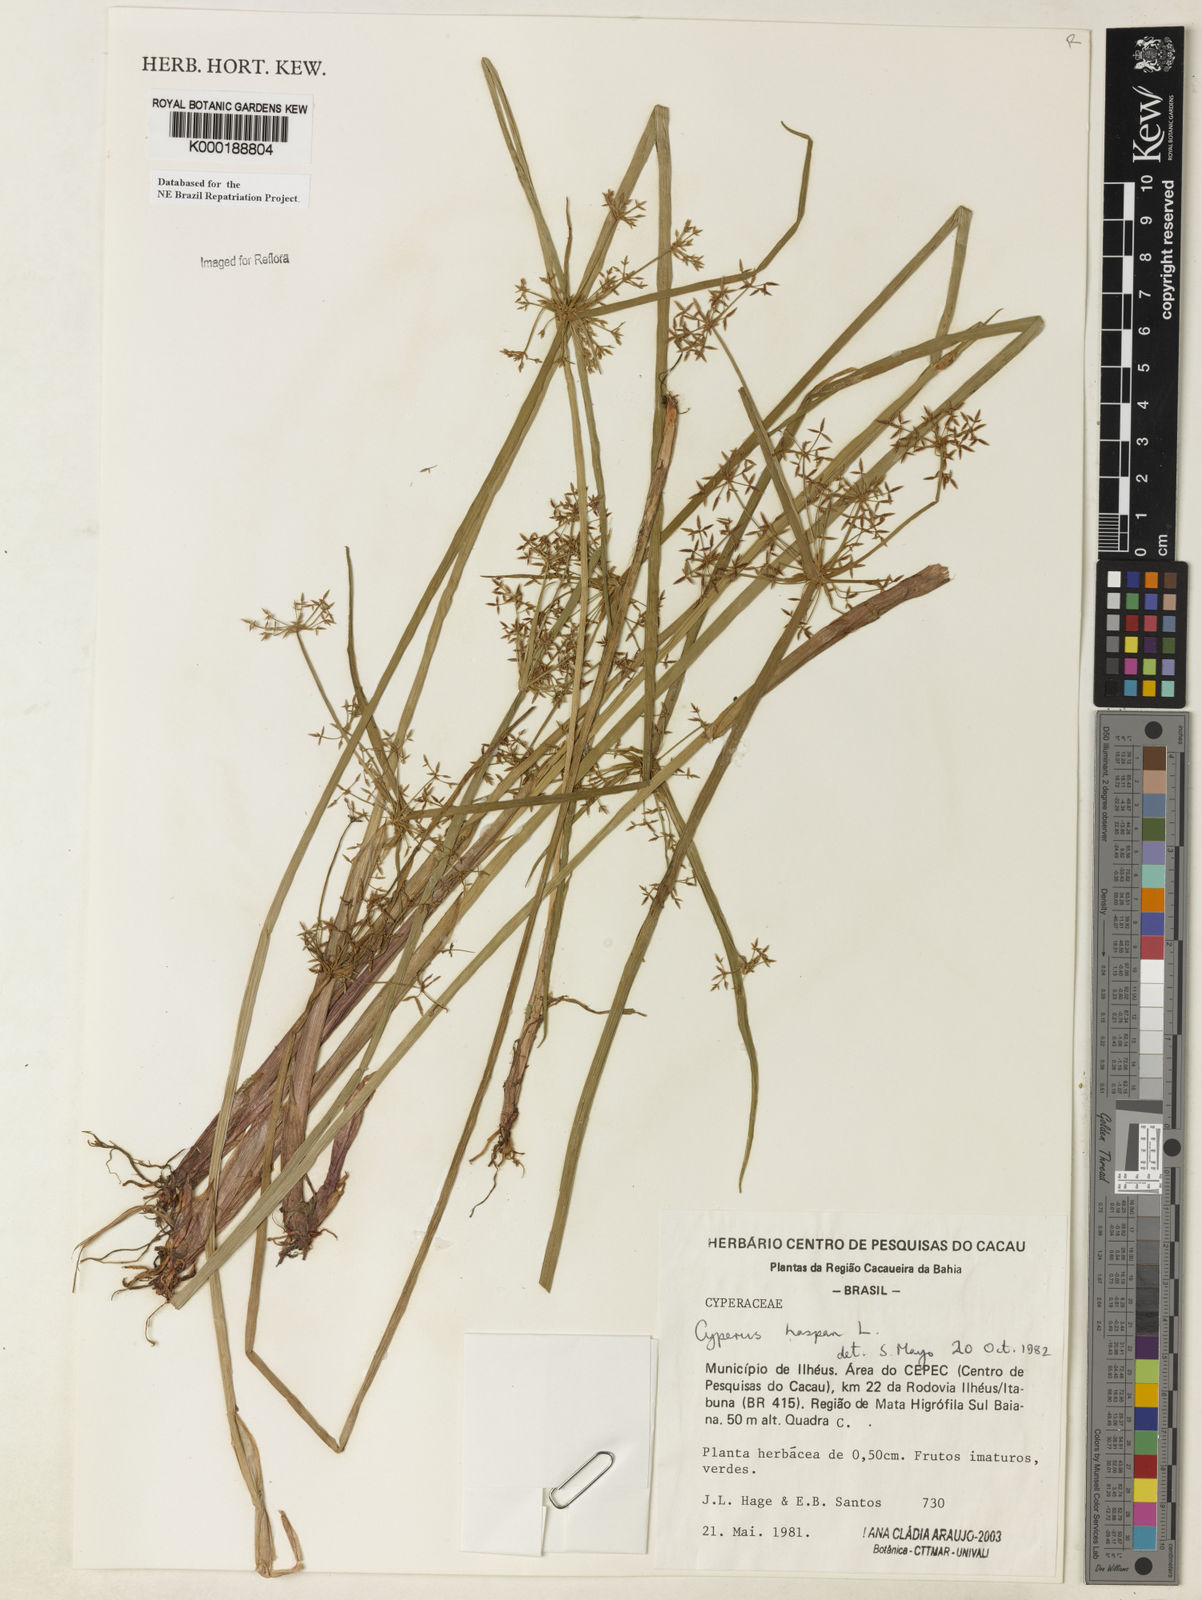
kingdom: Plantae
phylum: Tracheophyta
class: Liliopsida
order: Poales
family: Cyperaceae
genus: Cyperus
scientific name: Cyperus haspan
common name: Haspan flatsedge
